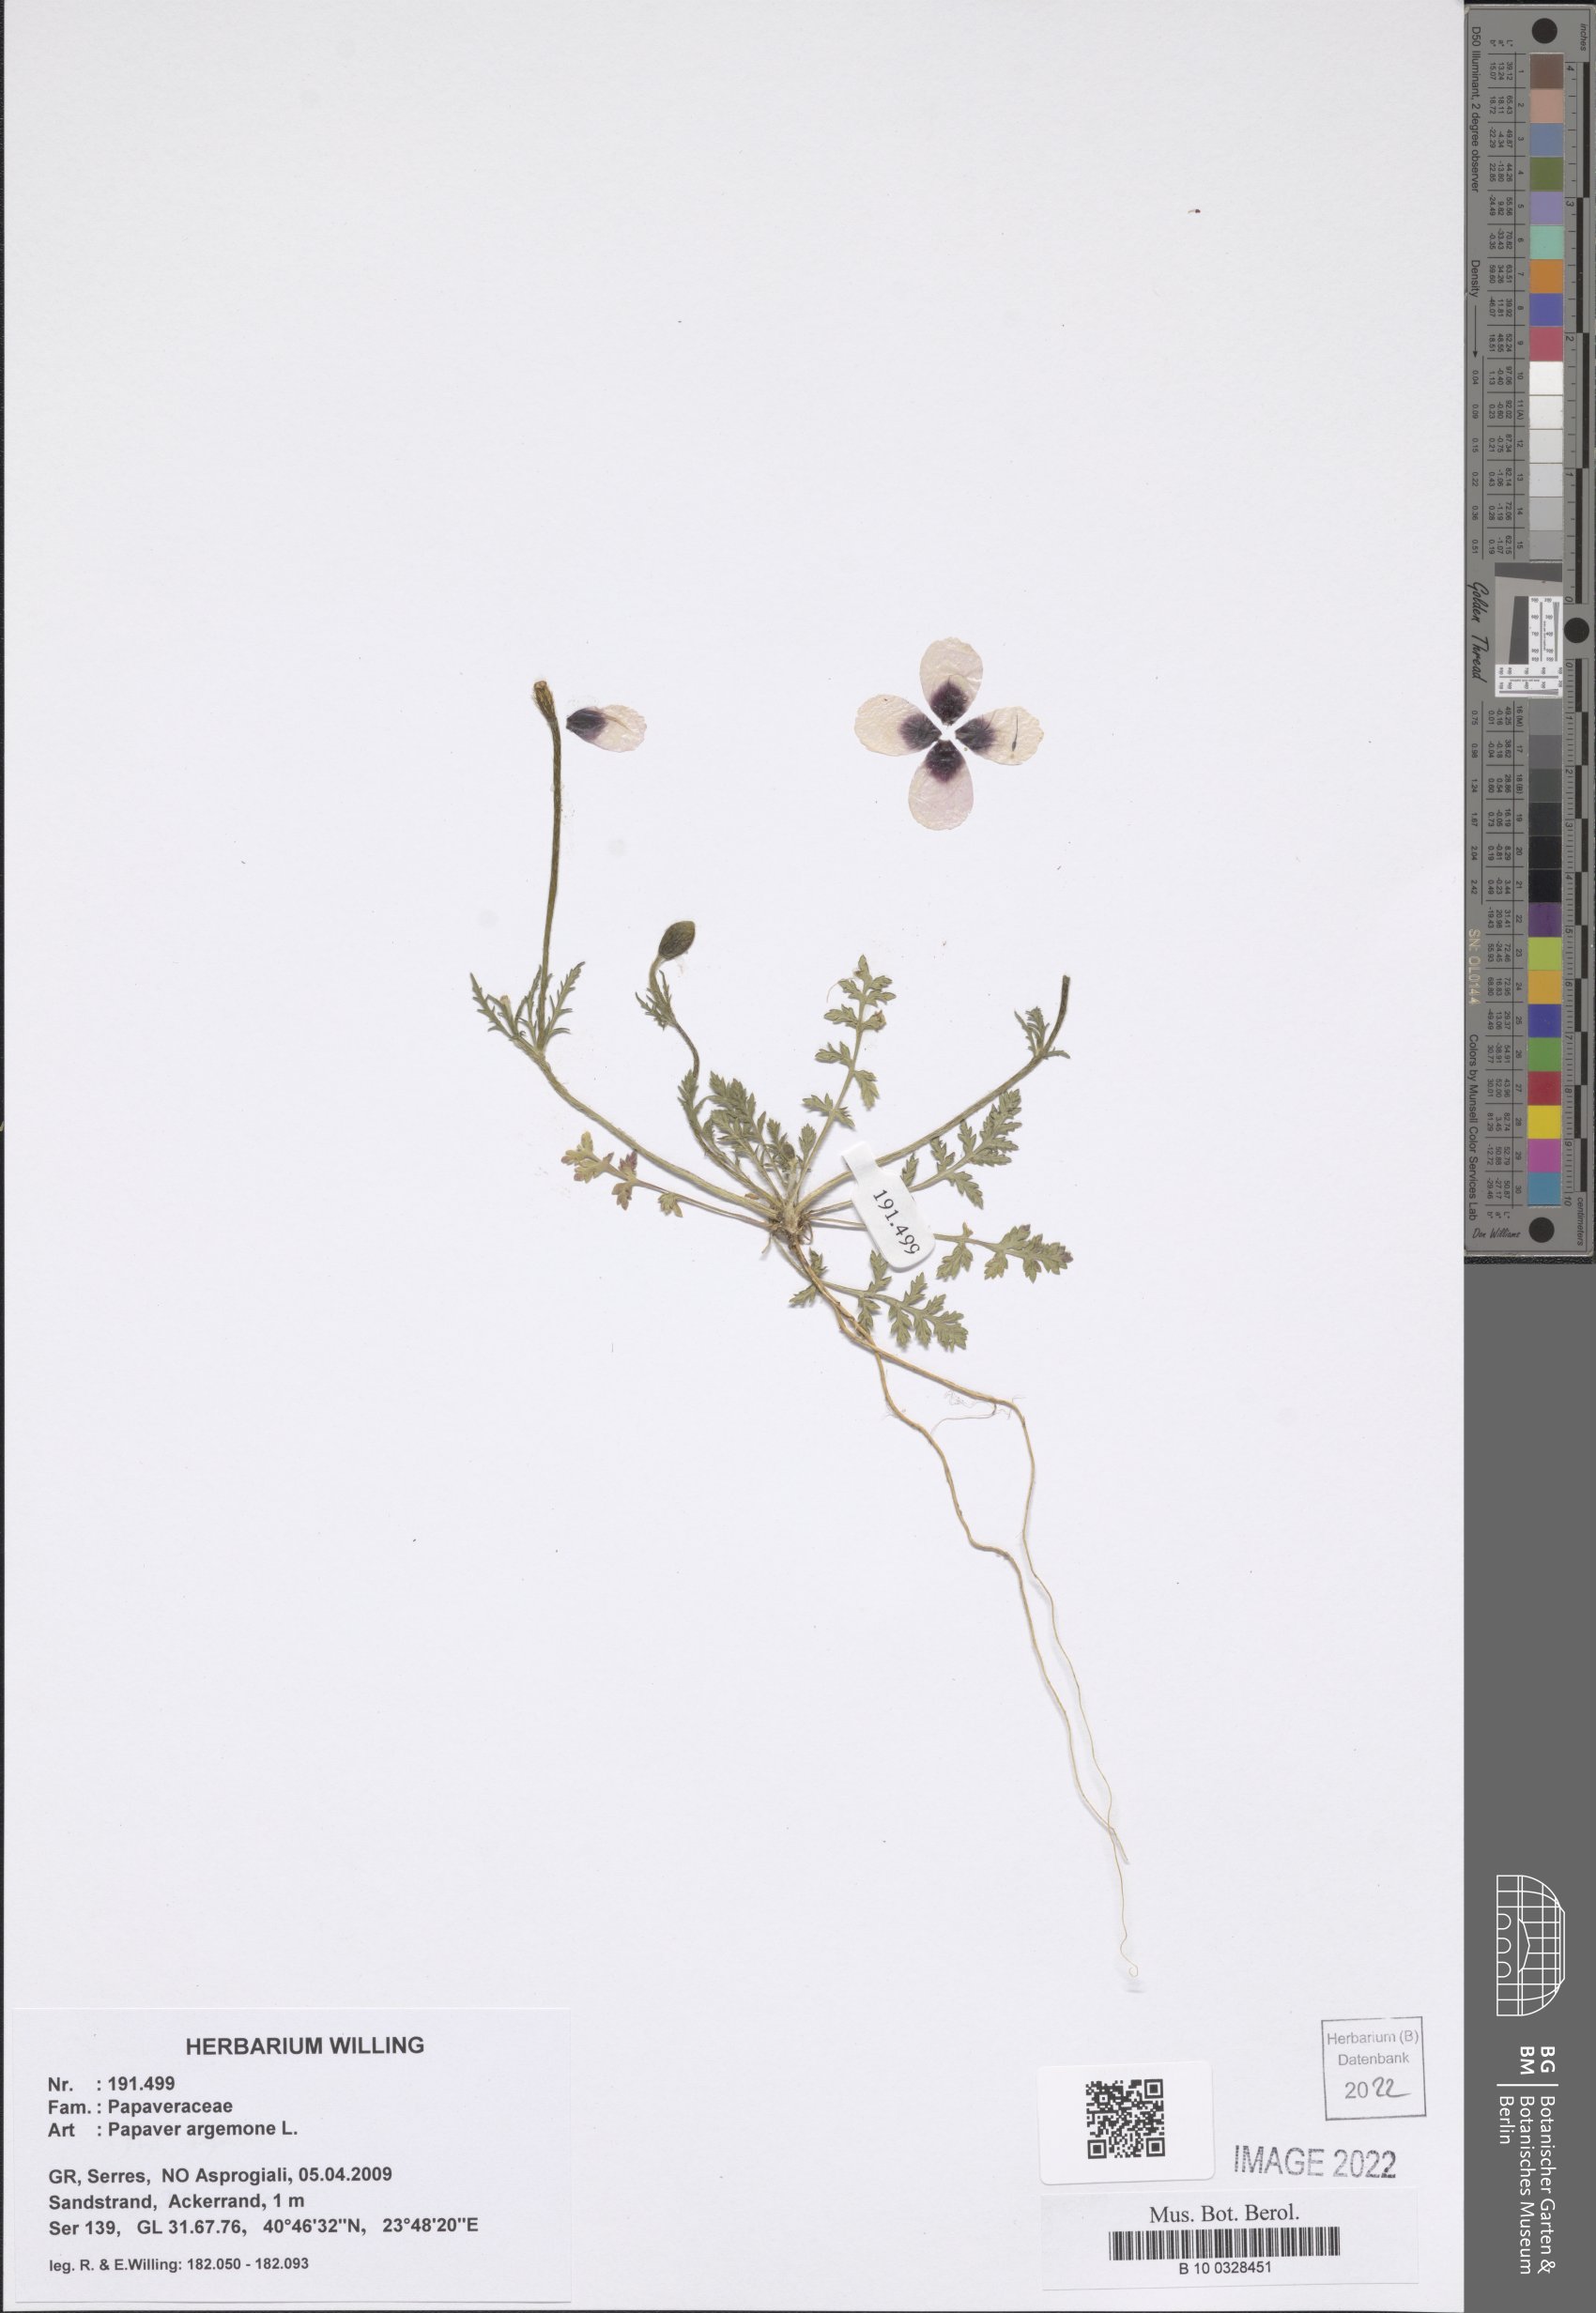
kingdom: Plantae
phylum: Tracheophyta
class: Magnoliopsida
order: Ranunculales
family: Papaveraceae
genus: Roemeria
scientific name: Roemeria argemone
